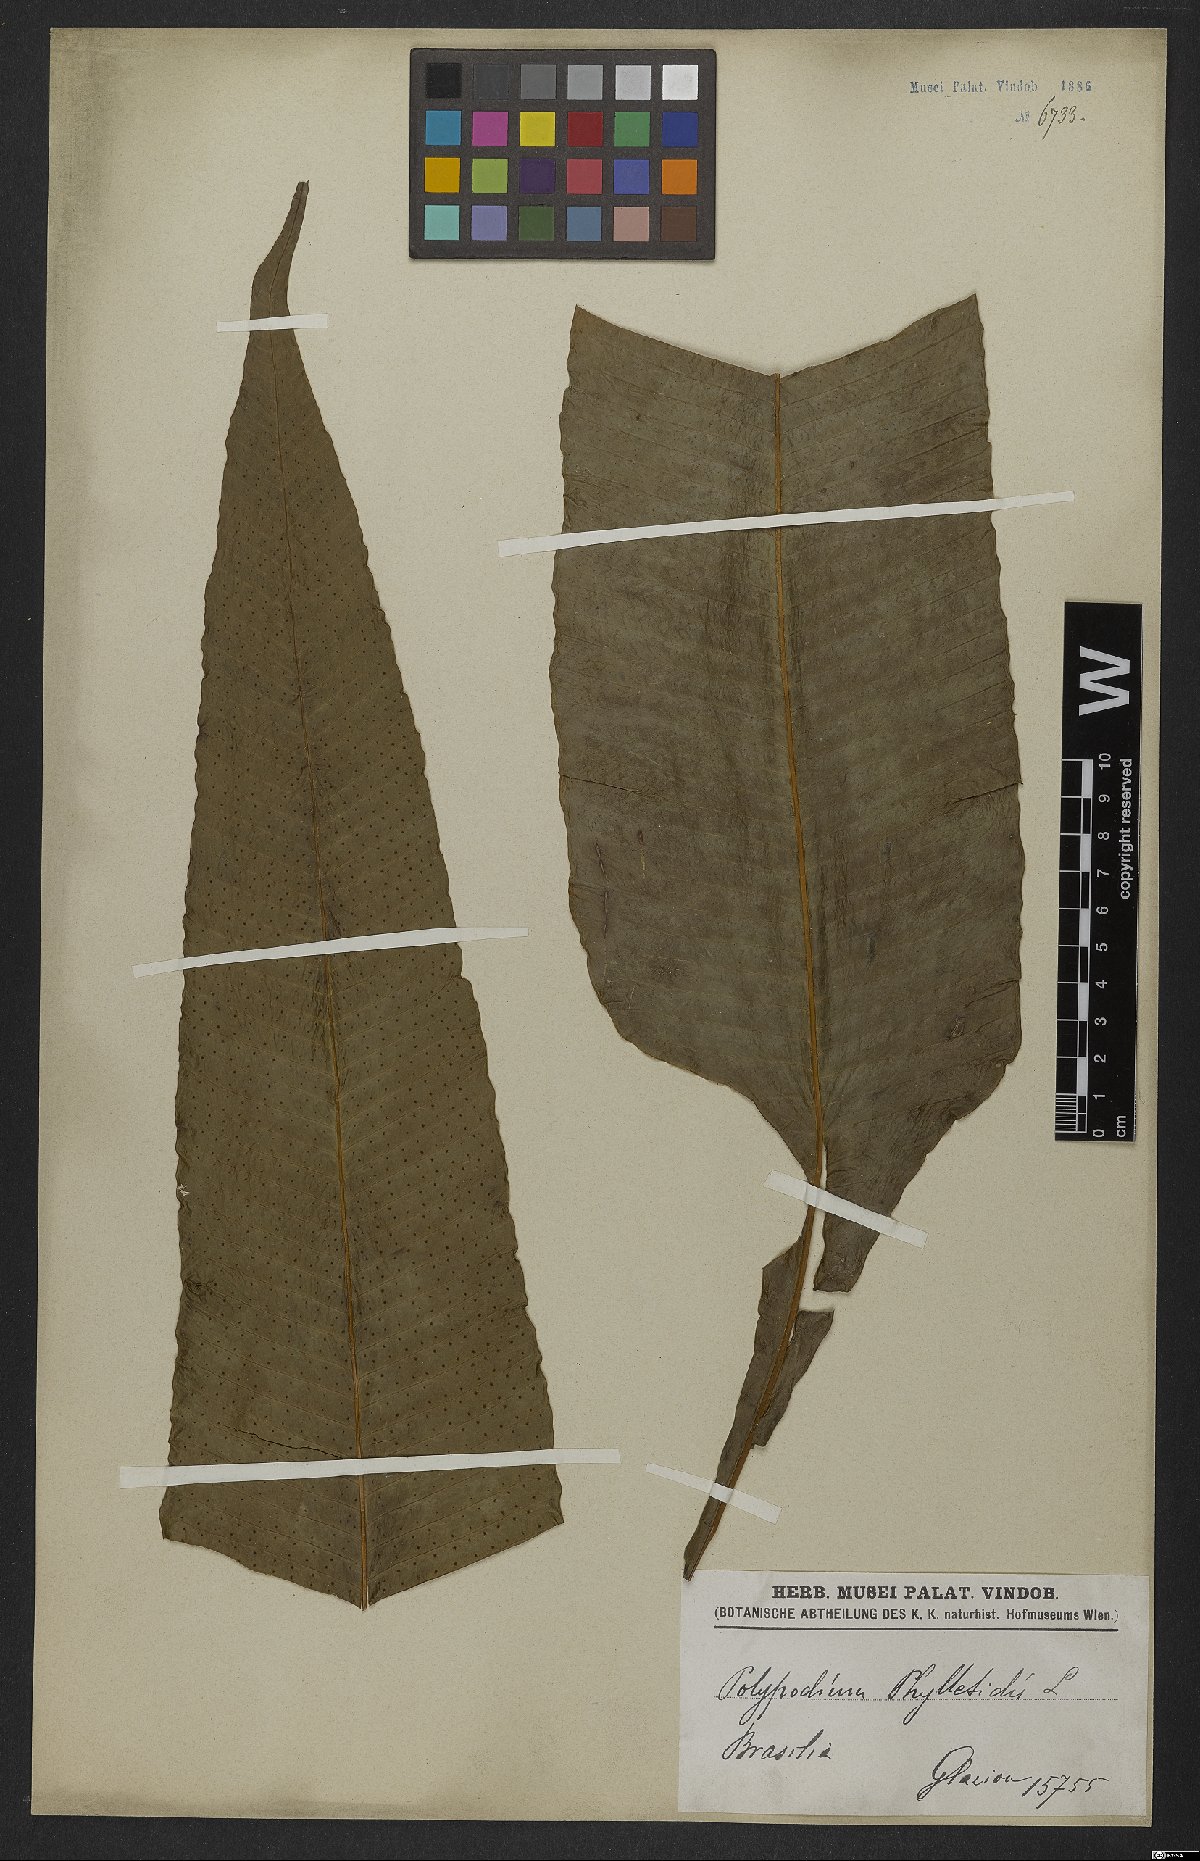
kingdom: Plantae
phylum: Tracheophyta
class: Polypodiopsida
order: Polypodiales
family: Polypodiaceae
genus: Campyloneurum
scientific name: Campyloneurum phyllitidis
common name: Cow-tongue fern
